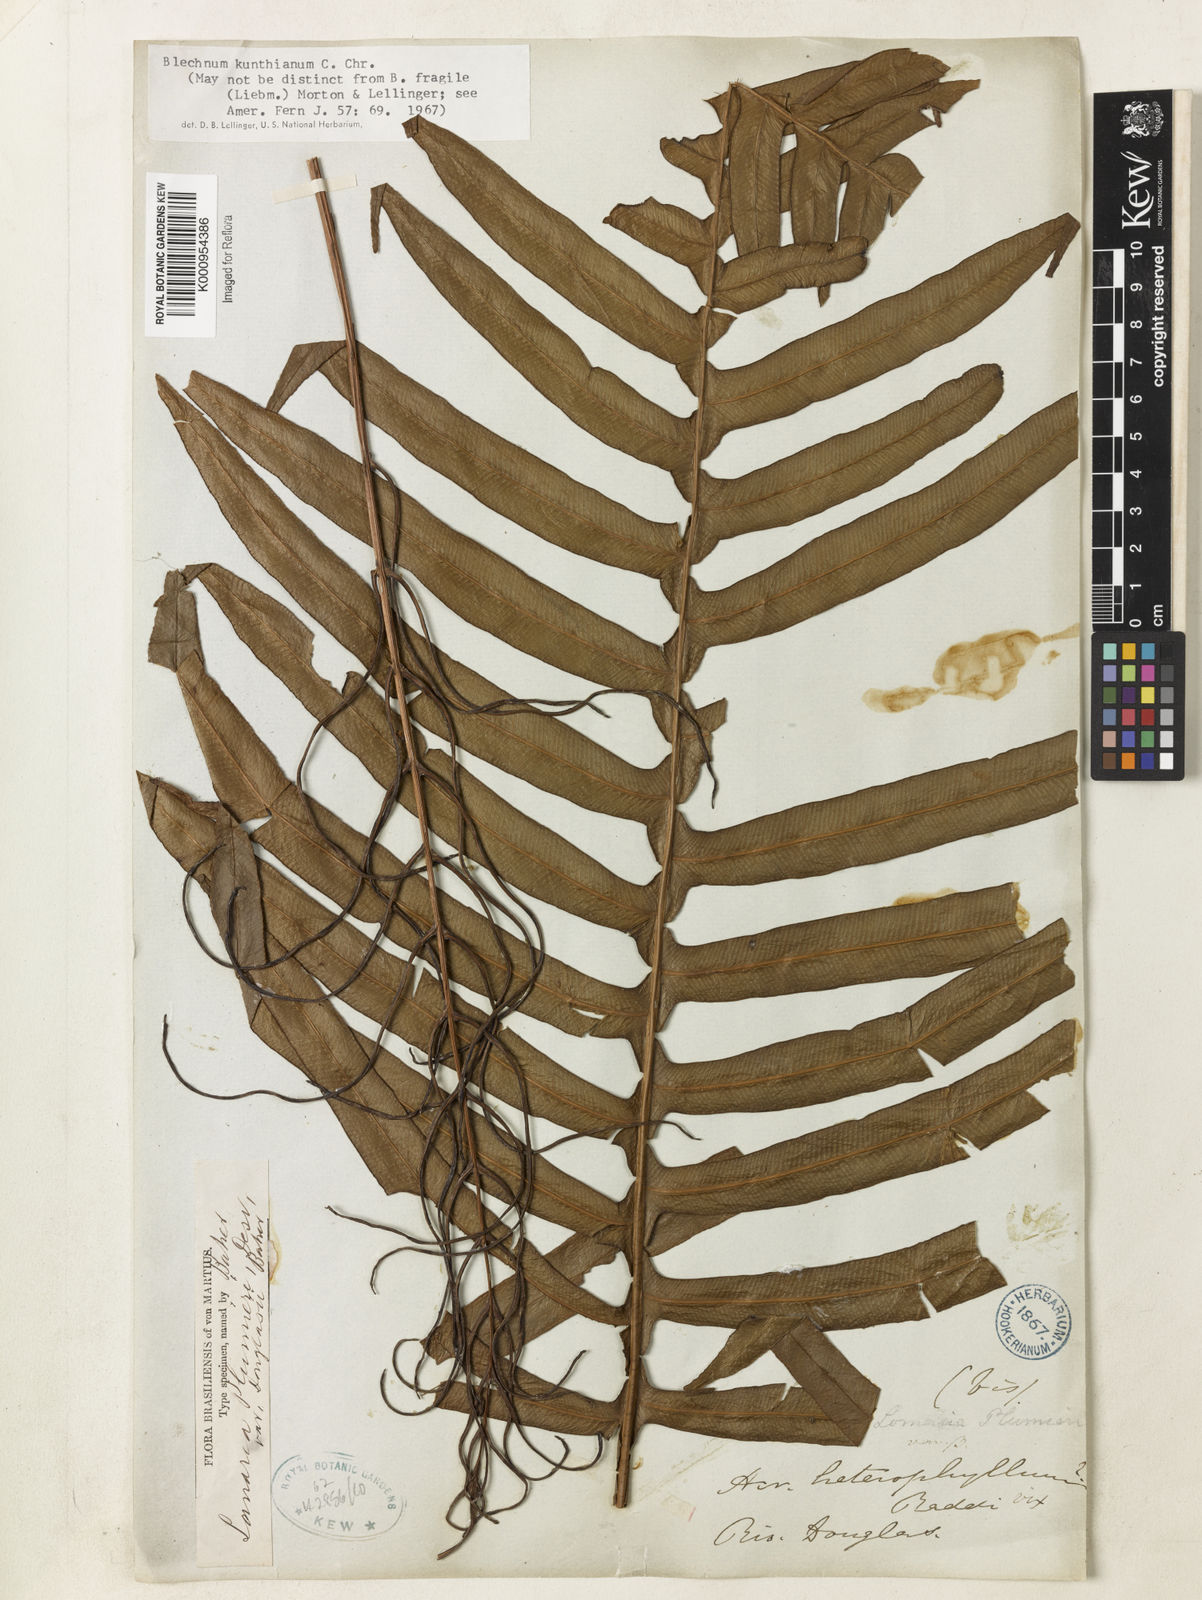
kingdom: Plantae
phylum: Tracheophyta
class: Polypodiopsida
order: Polypodiales
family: Blechnaceae
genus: Lomaridium
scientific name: Lomaridium acutum
